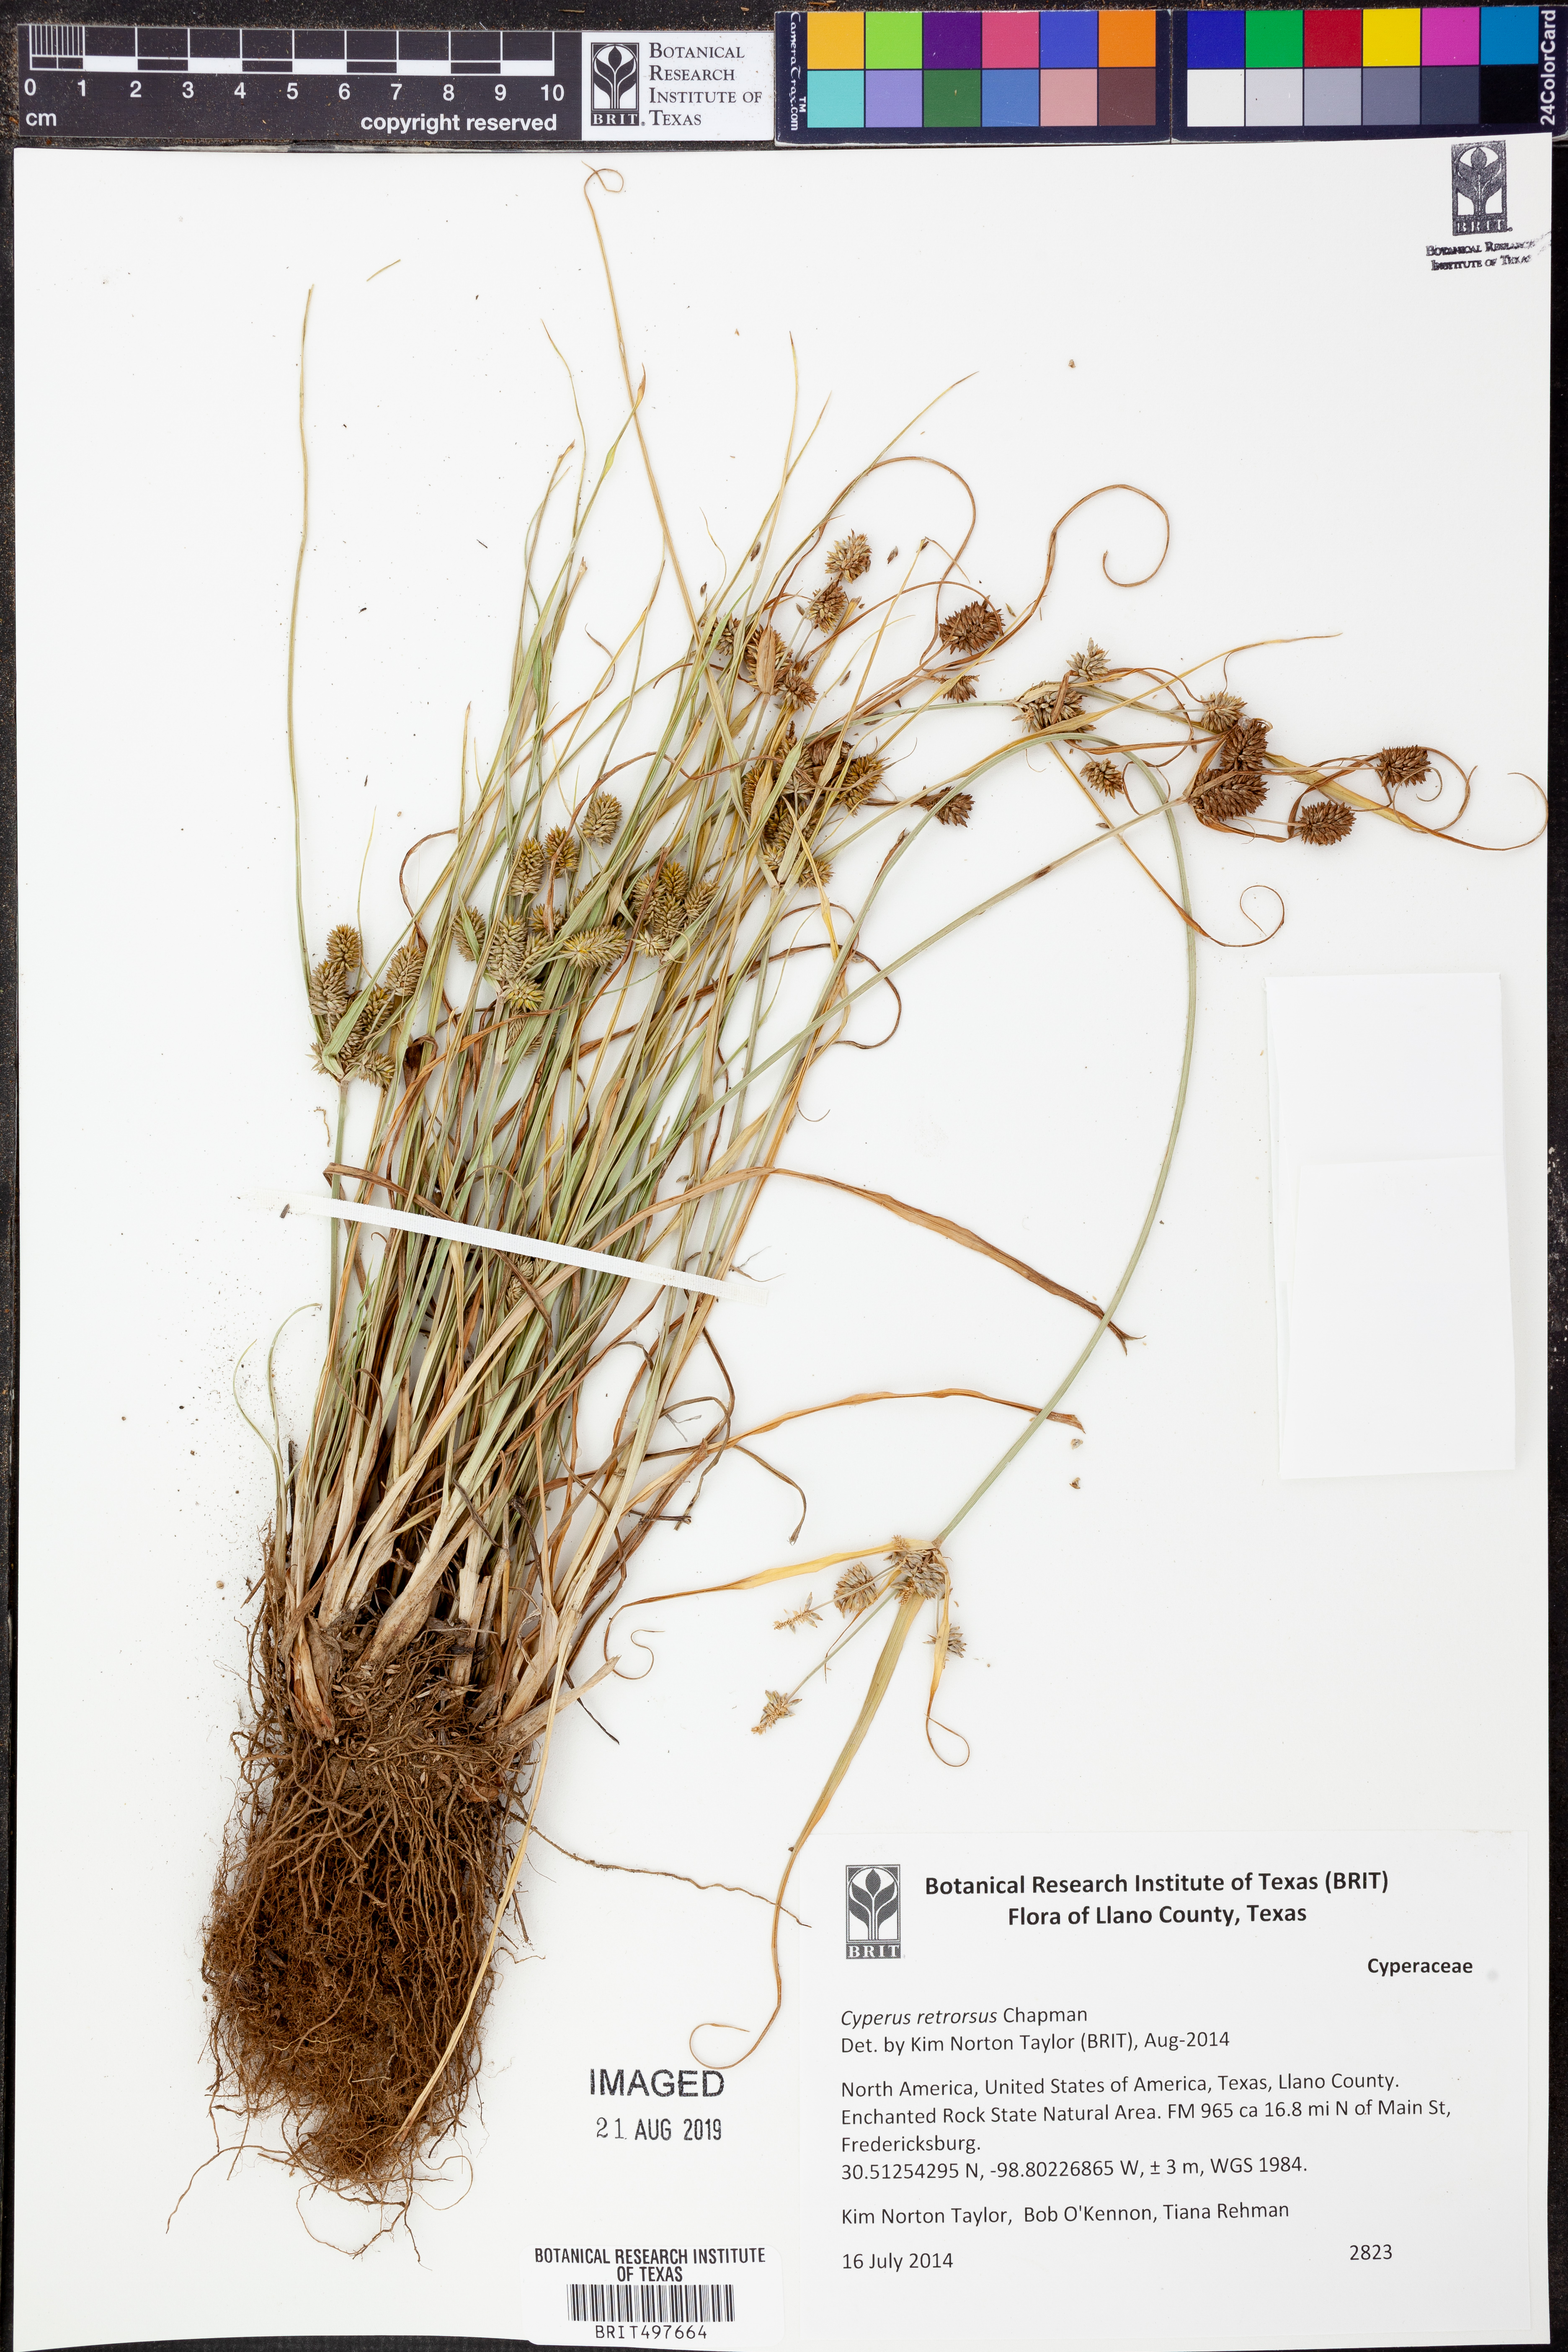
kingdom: Plantae
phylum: Tracheophyta
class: Liliopsida
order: Poales
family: Cyperaceae
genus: Cyperus
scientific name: Cyperus retrorsus
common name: Pinebarren flat sedge
